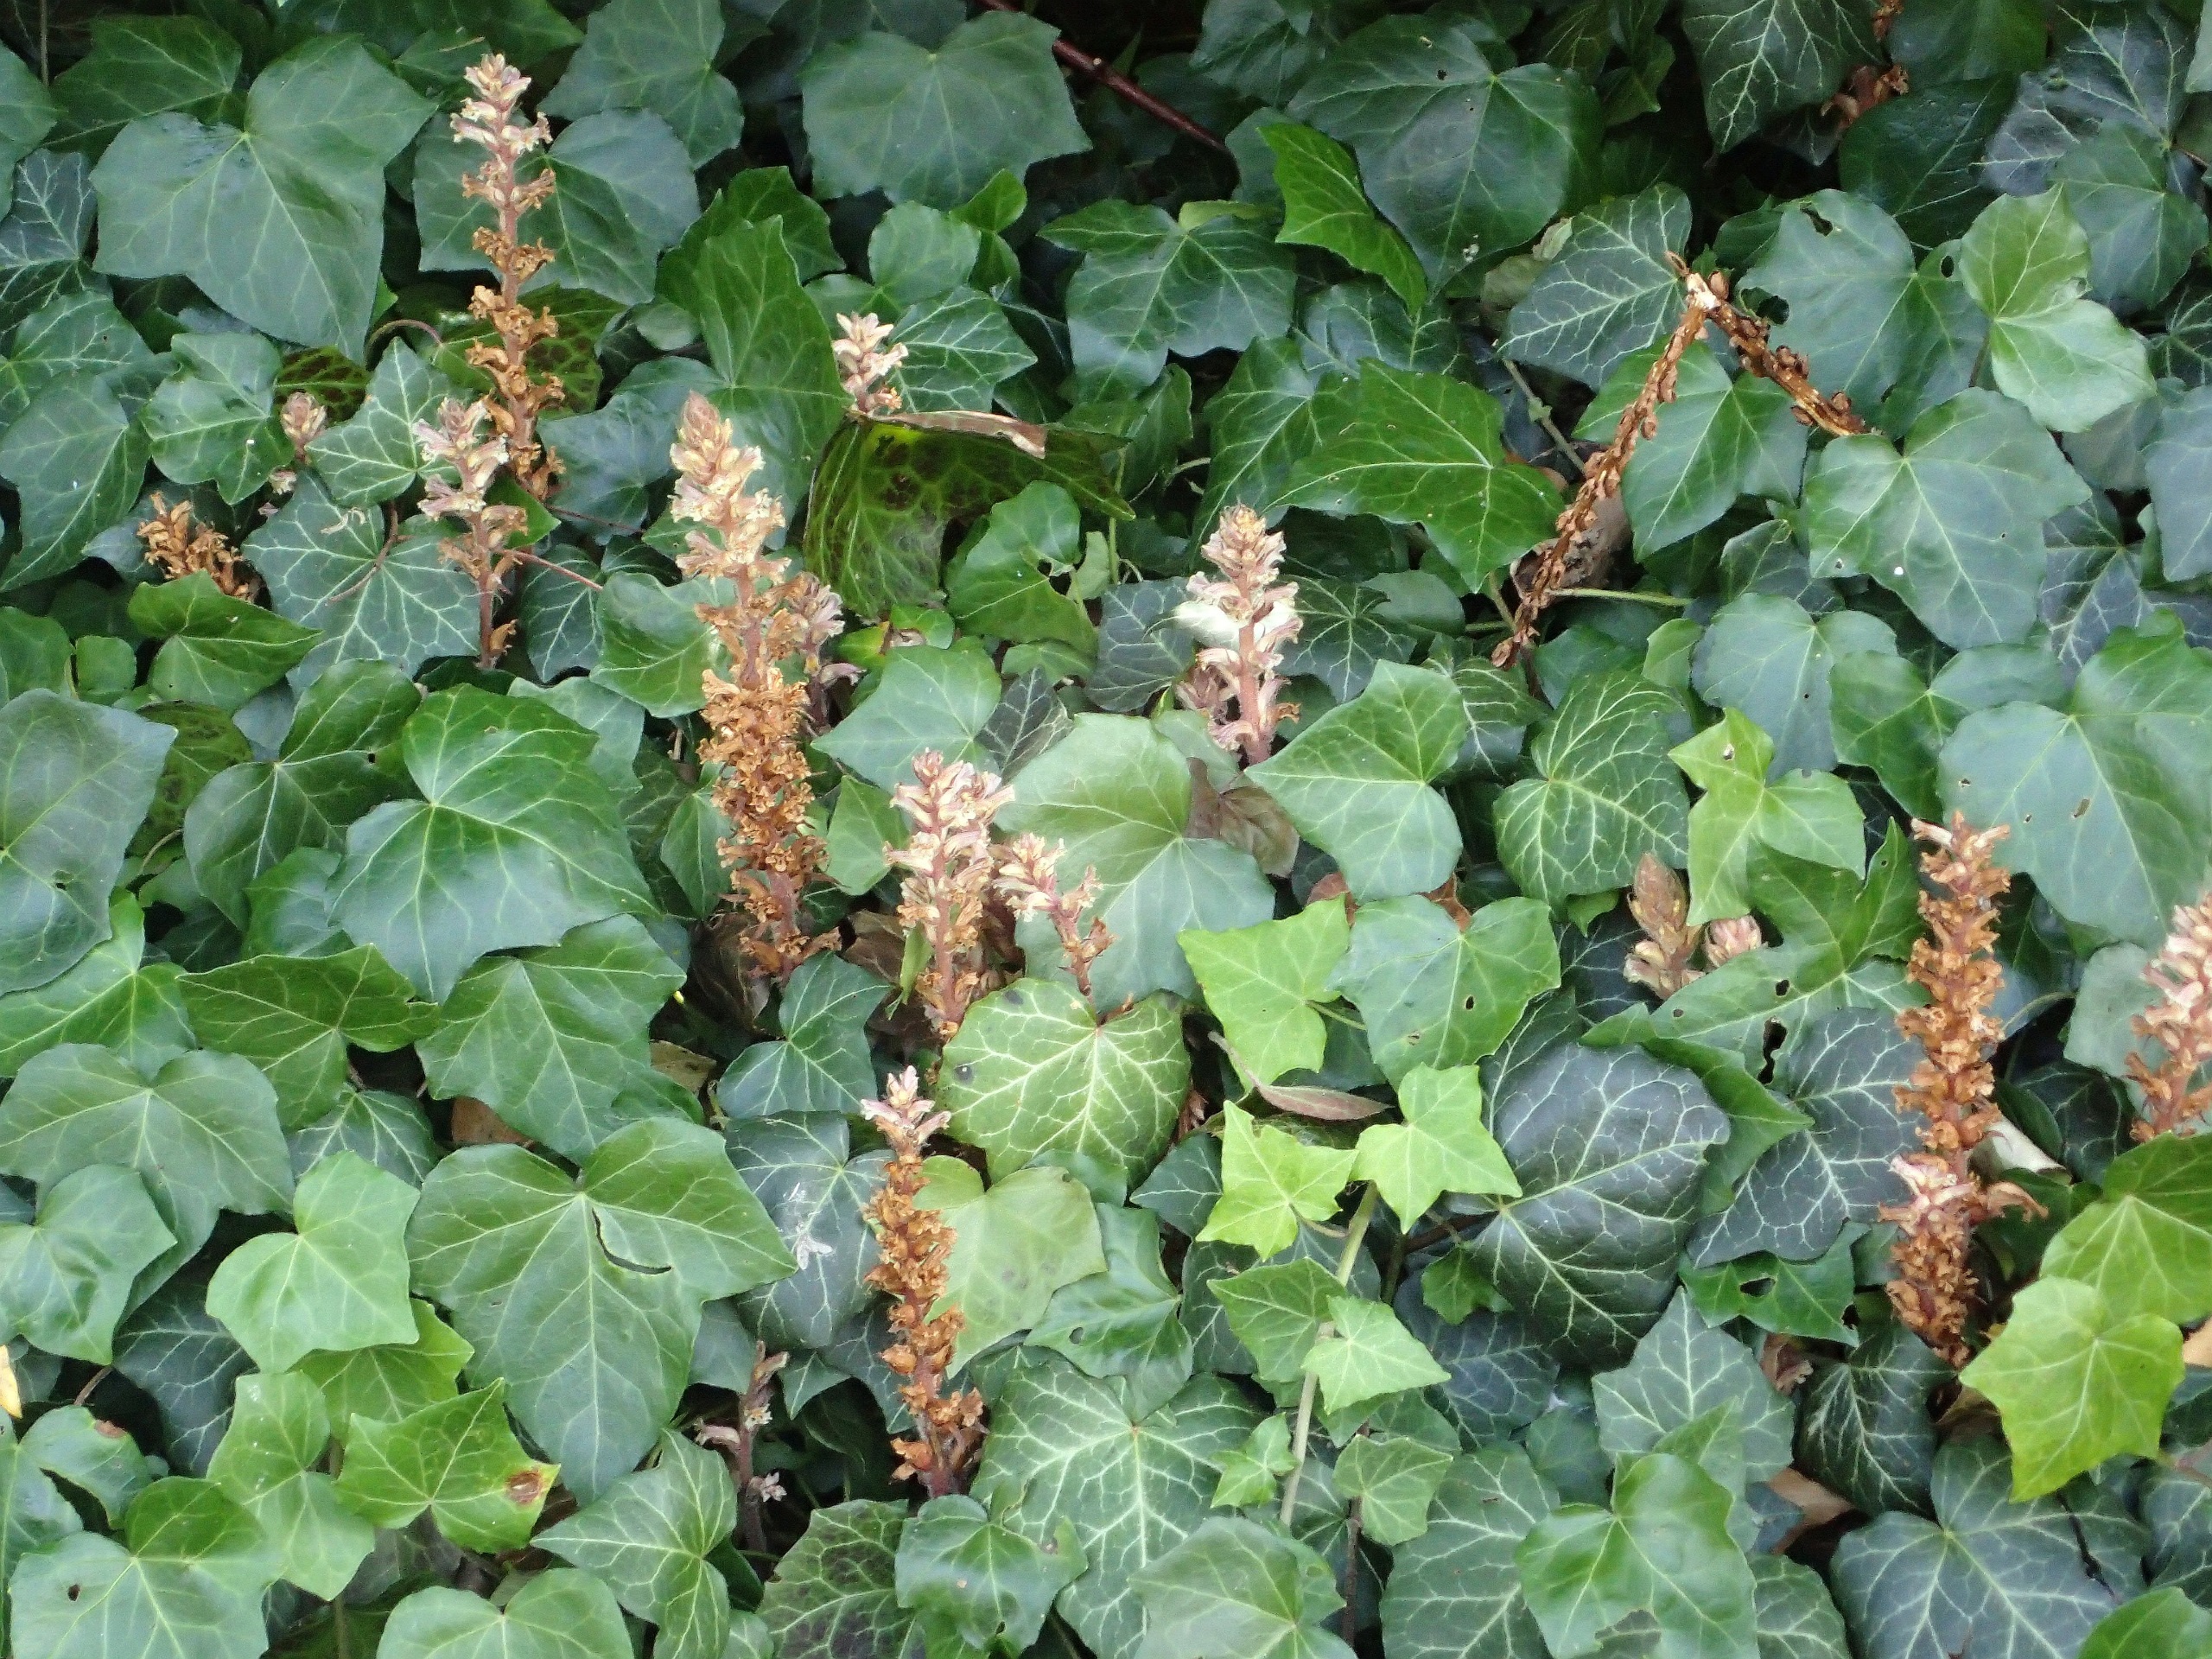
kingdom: Plantae
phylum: Tracheophyta
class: Magnoliopsida
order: Lamiales
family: Orobanchaceae
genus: Orobanche
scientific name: Orobanche hederae
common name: Vedbend-gyvelkvæler
